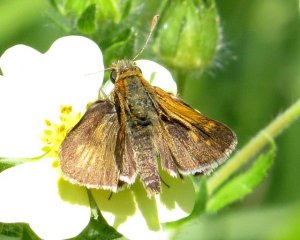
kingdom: Animalia
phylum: Arthropoda
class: Insecta
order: Lepidoptera
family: Hesperiidae
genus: Polites
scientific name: Polites coras
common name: Peck's Skipper
